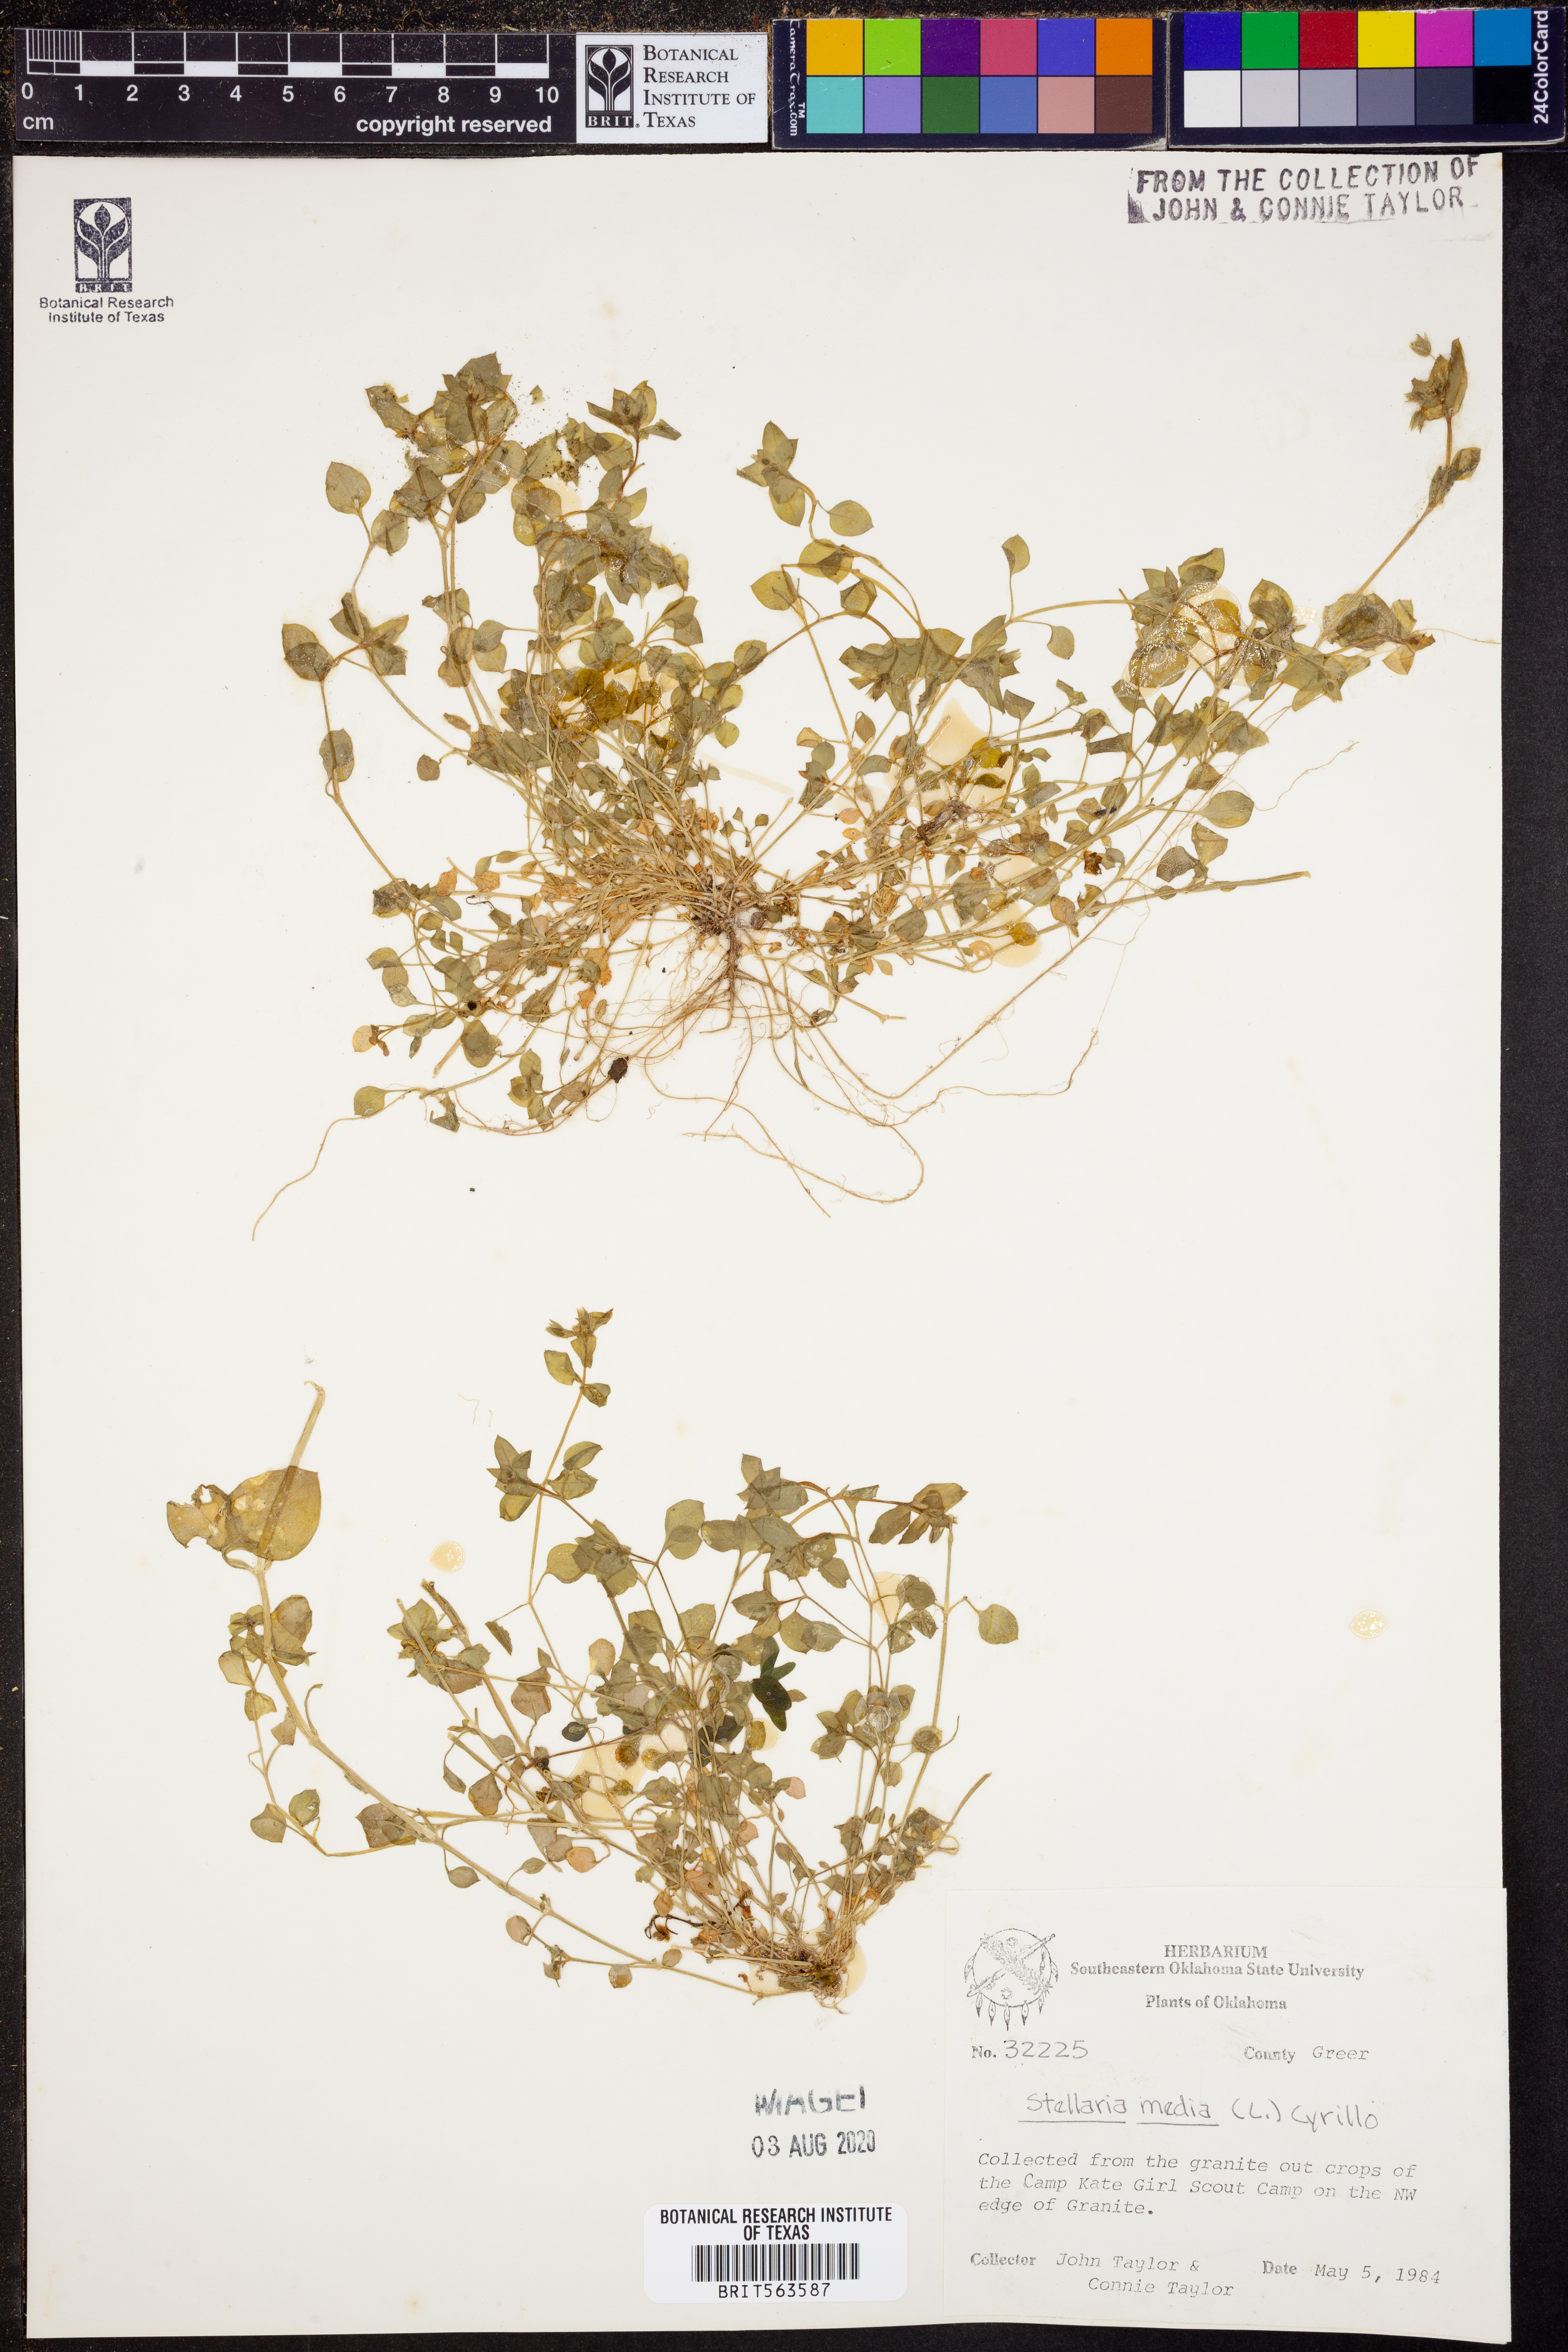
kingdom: Plantae
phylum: Tracheophyta
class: Magnoliopsida
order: Caryophyllales
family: Caryophyllaceae
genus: Stellaria
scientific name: Stellaria media
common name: Common chickweed
